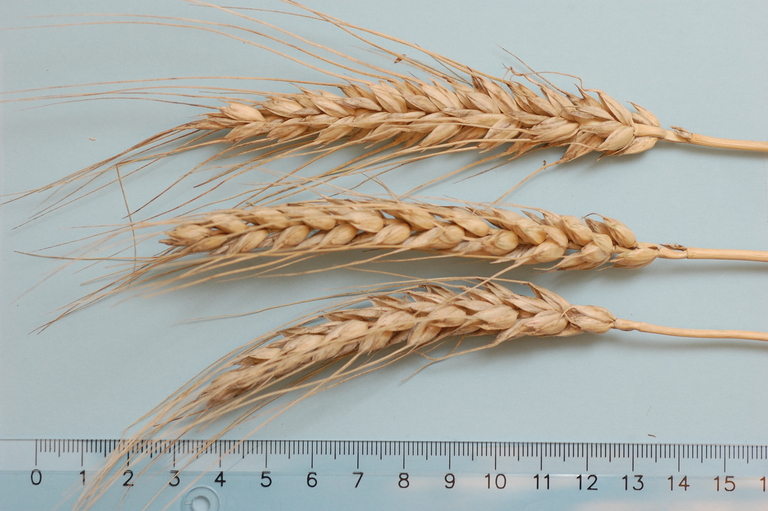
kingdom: Plantae
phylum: Tracheophyta
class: Liliopsida
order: Poales
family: Poaceae
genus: Triticum
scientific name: Triticum aestivum
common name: Common wheat
